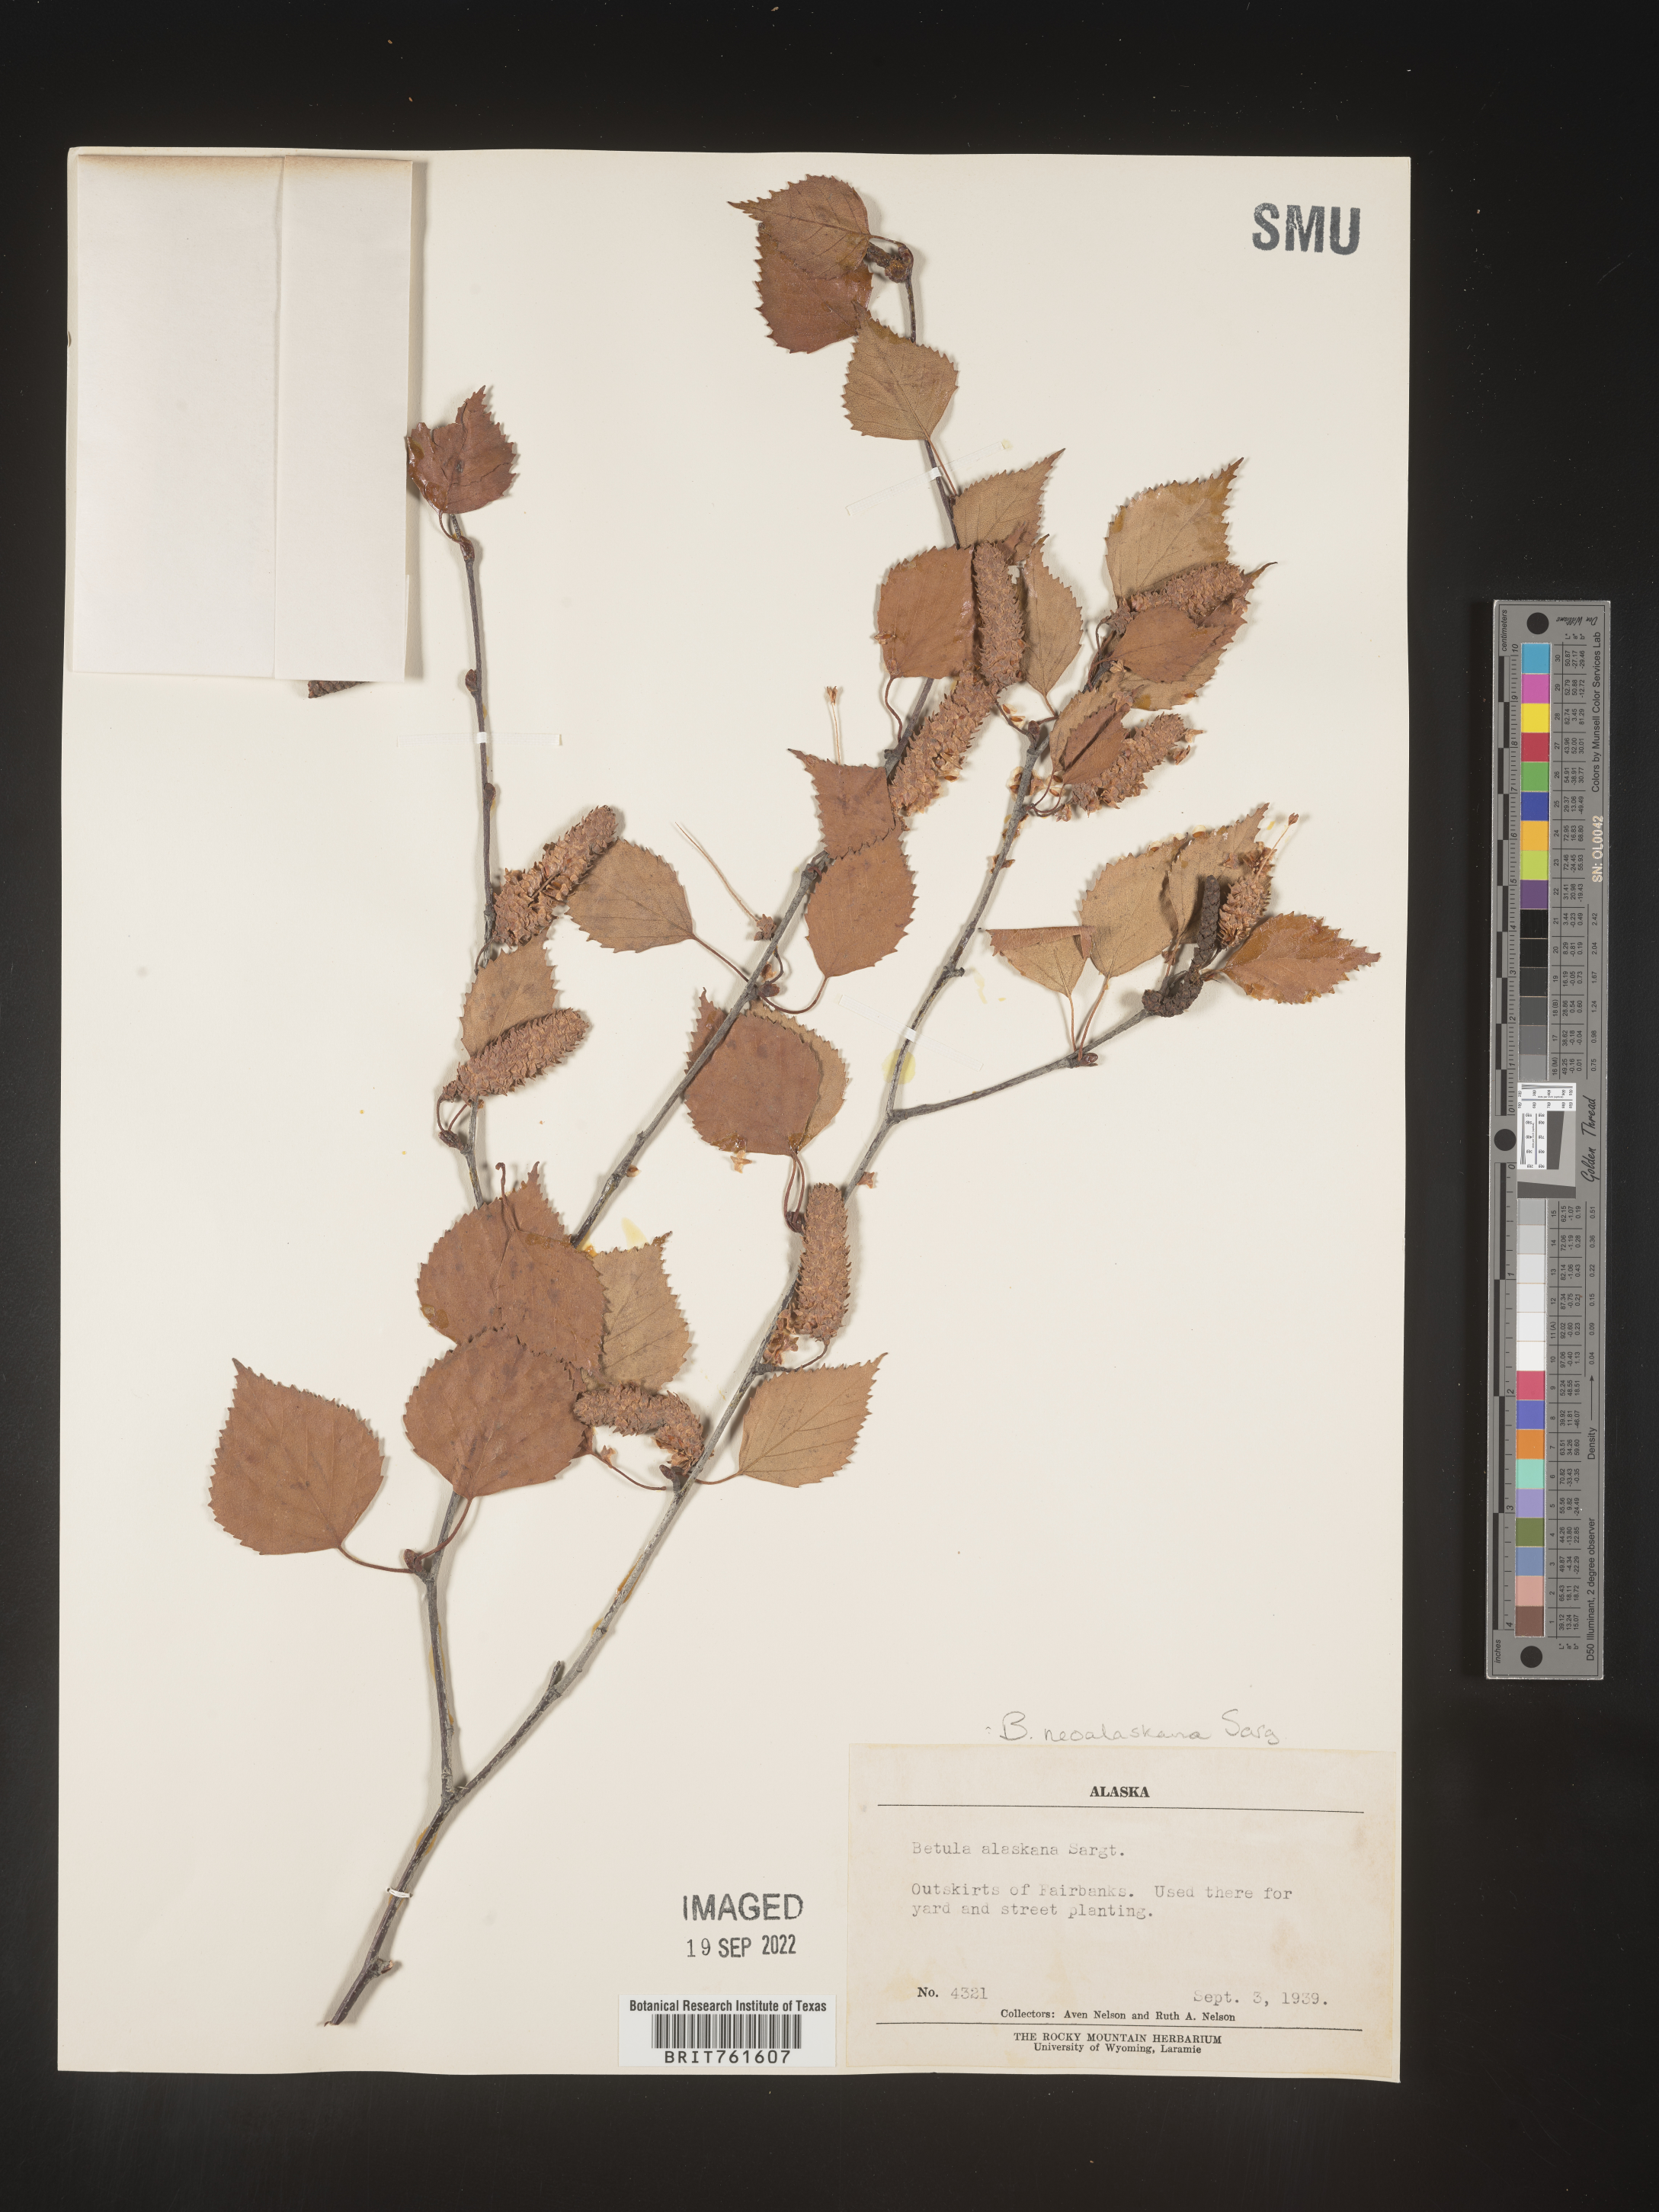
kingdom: Plantae
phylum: Tracheophyta
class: Magnoliopsida
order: Fagales
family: Betulaceae
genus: Betula
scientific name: Betula pendula
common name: Silver birch
